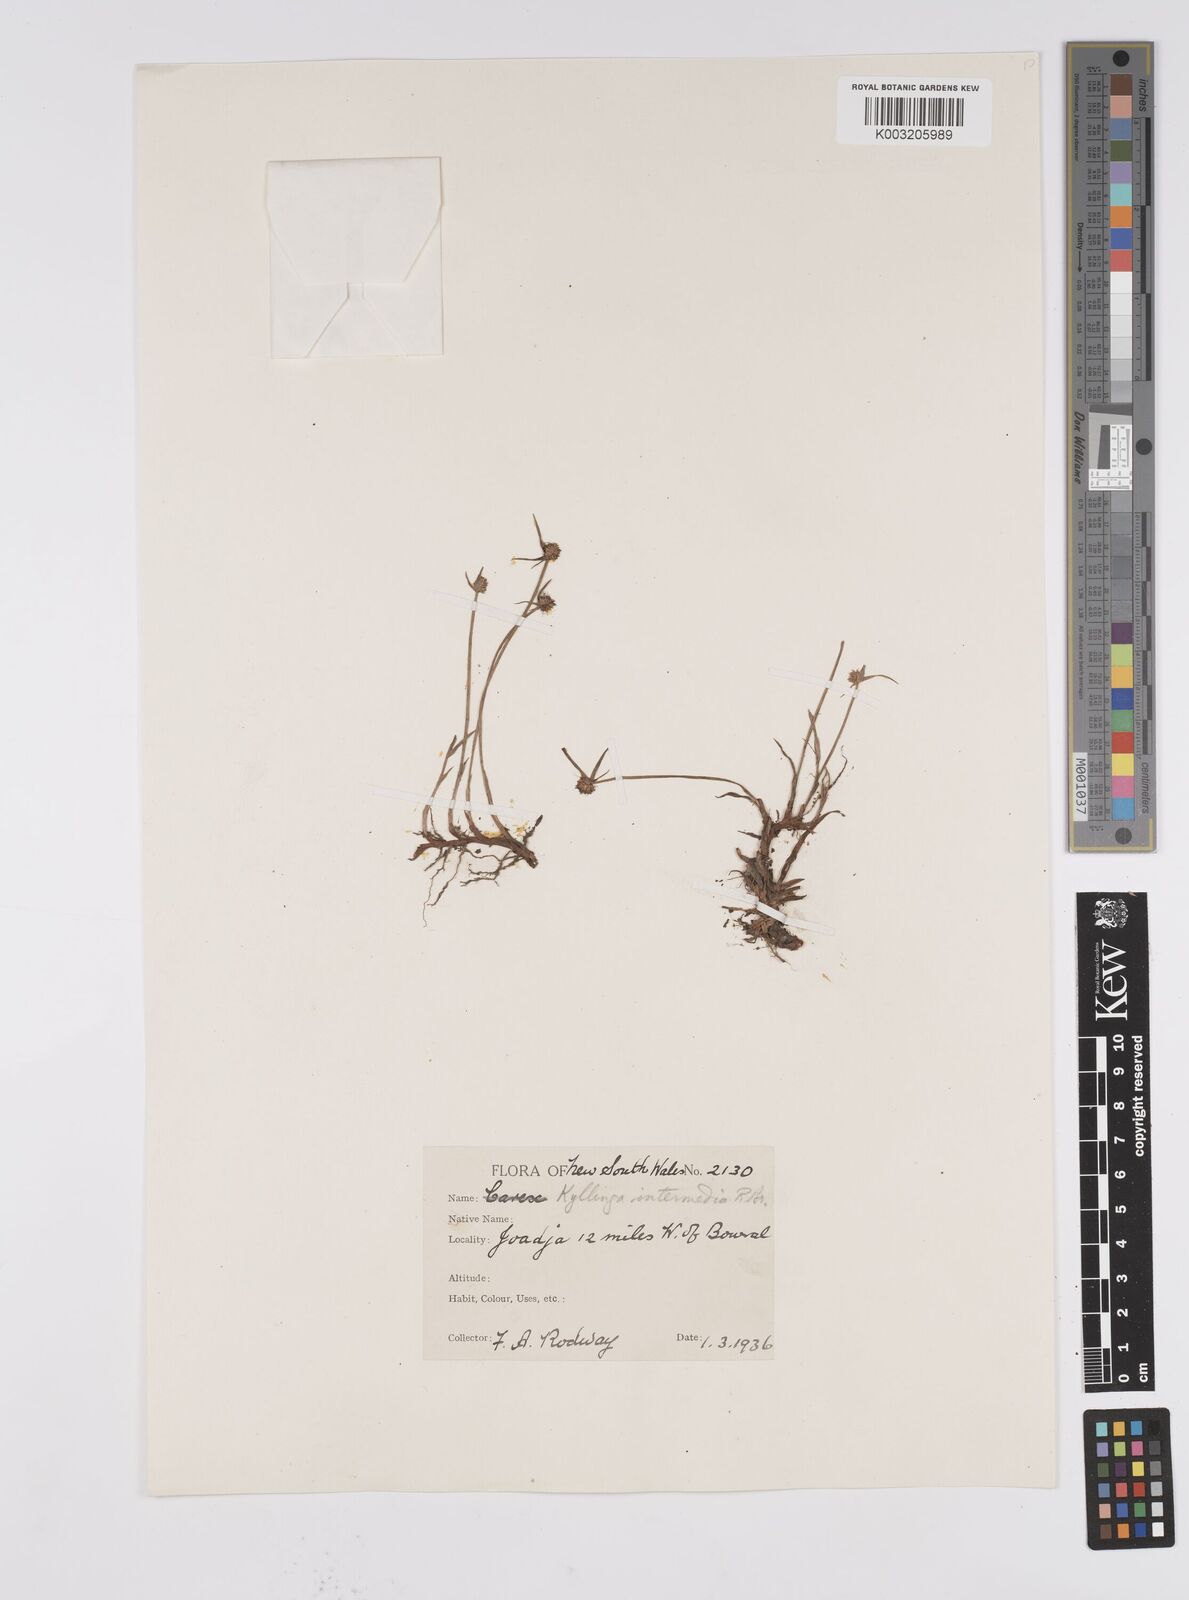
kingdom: Plantae
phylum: Tracheophyta
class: Liliopsida
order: Poales
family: Cyperaceae
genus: Cyperus
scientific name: Cyperus brevifolius
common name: Globe kyllinga
